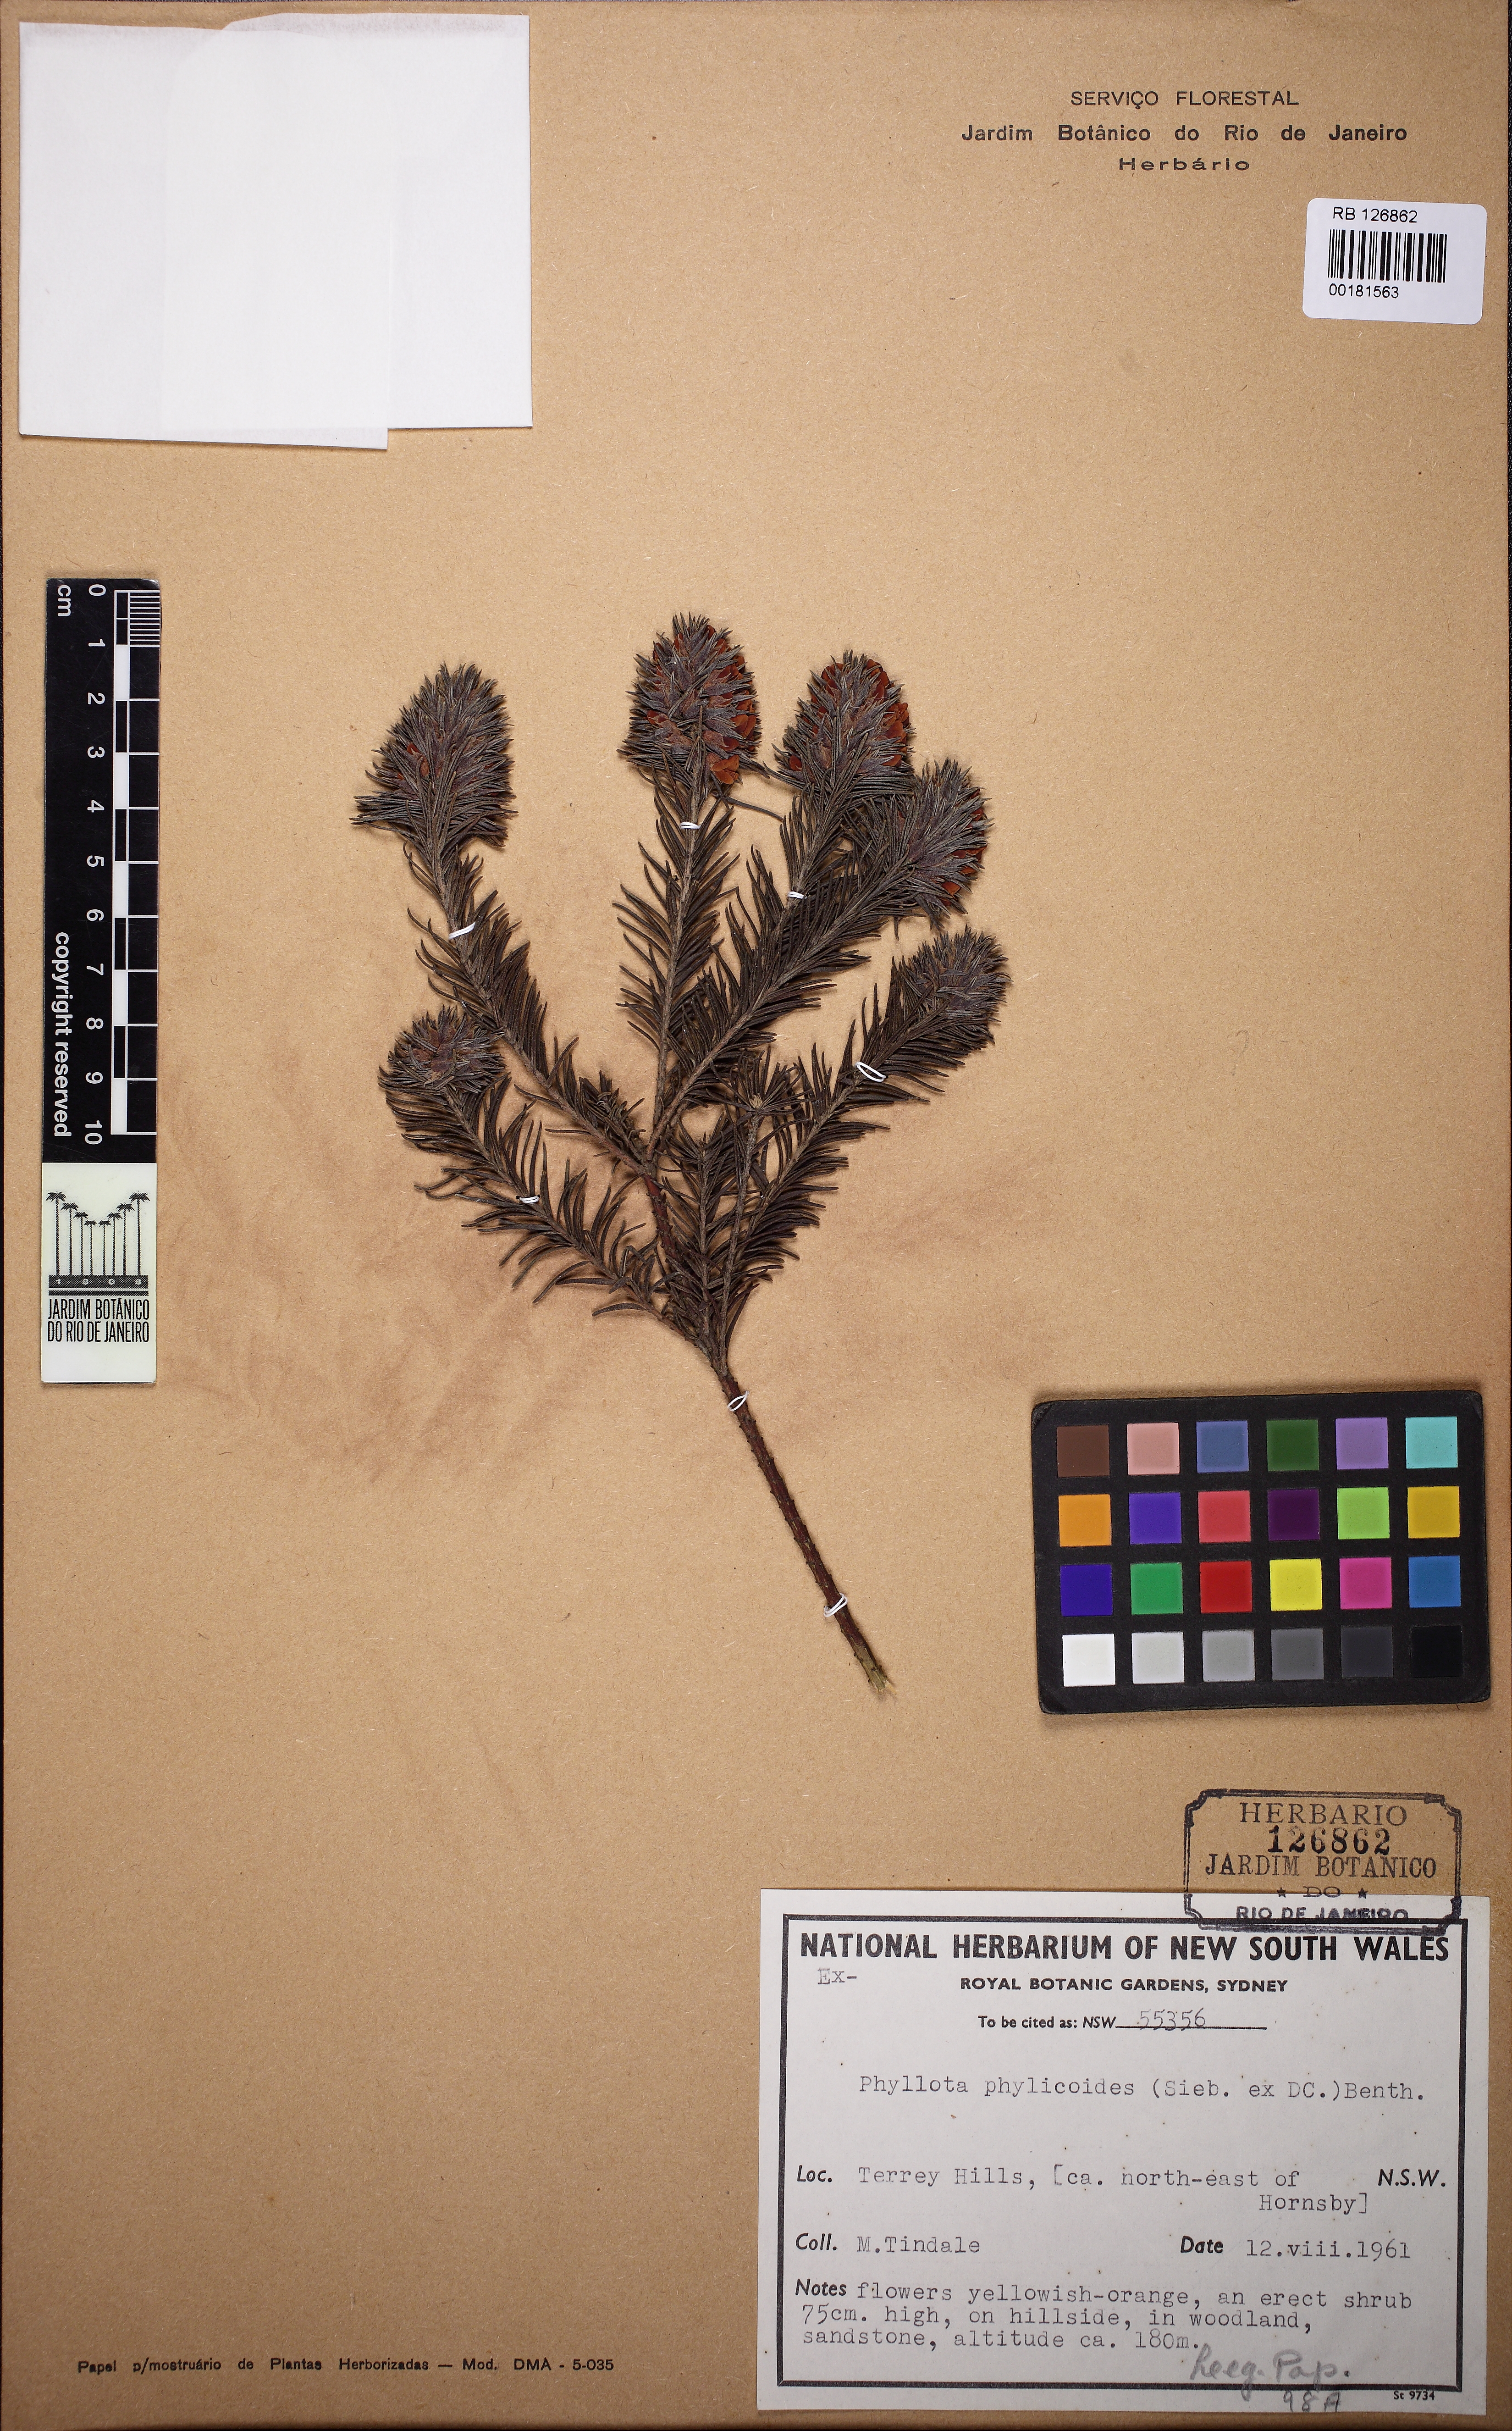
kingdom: Plantae
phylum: Tracheophyta
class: Magnoliopsida
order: Fabales
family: Fabaceae
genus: Phyllota
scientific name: Phyllota phylicoides
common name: Heath phyllota
